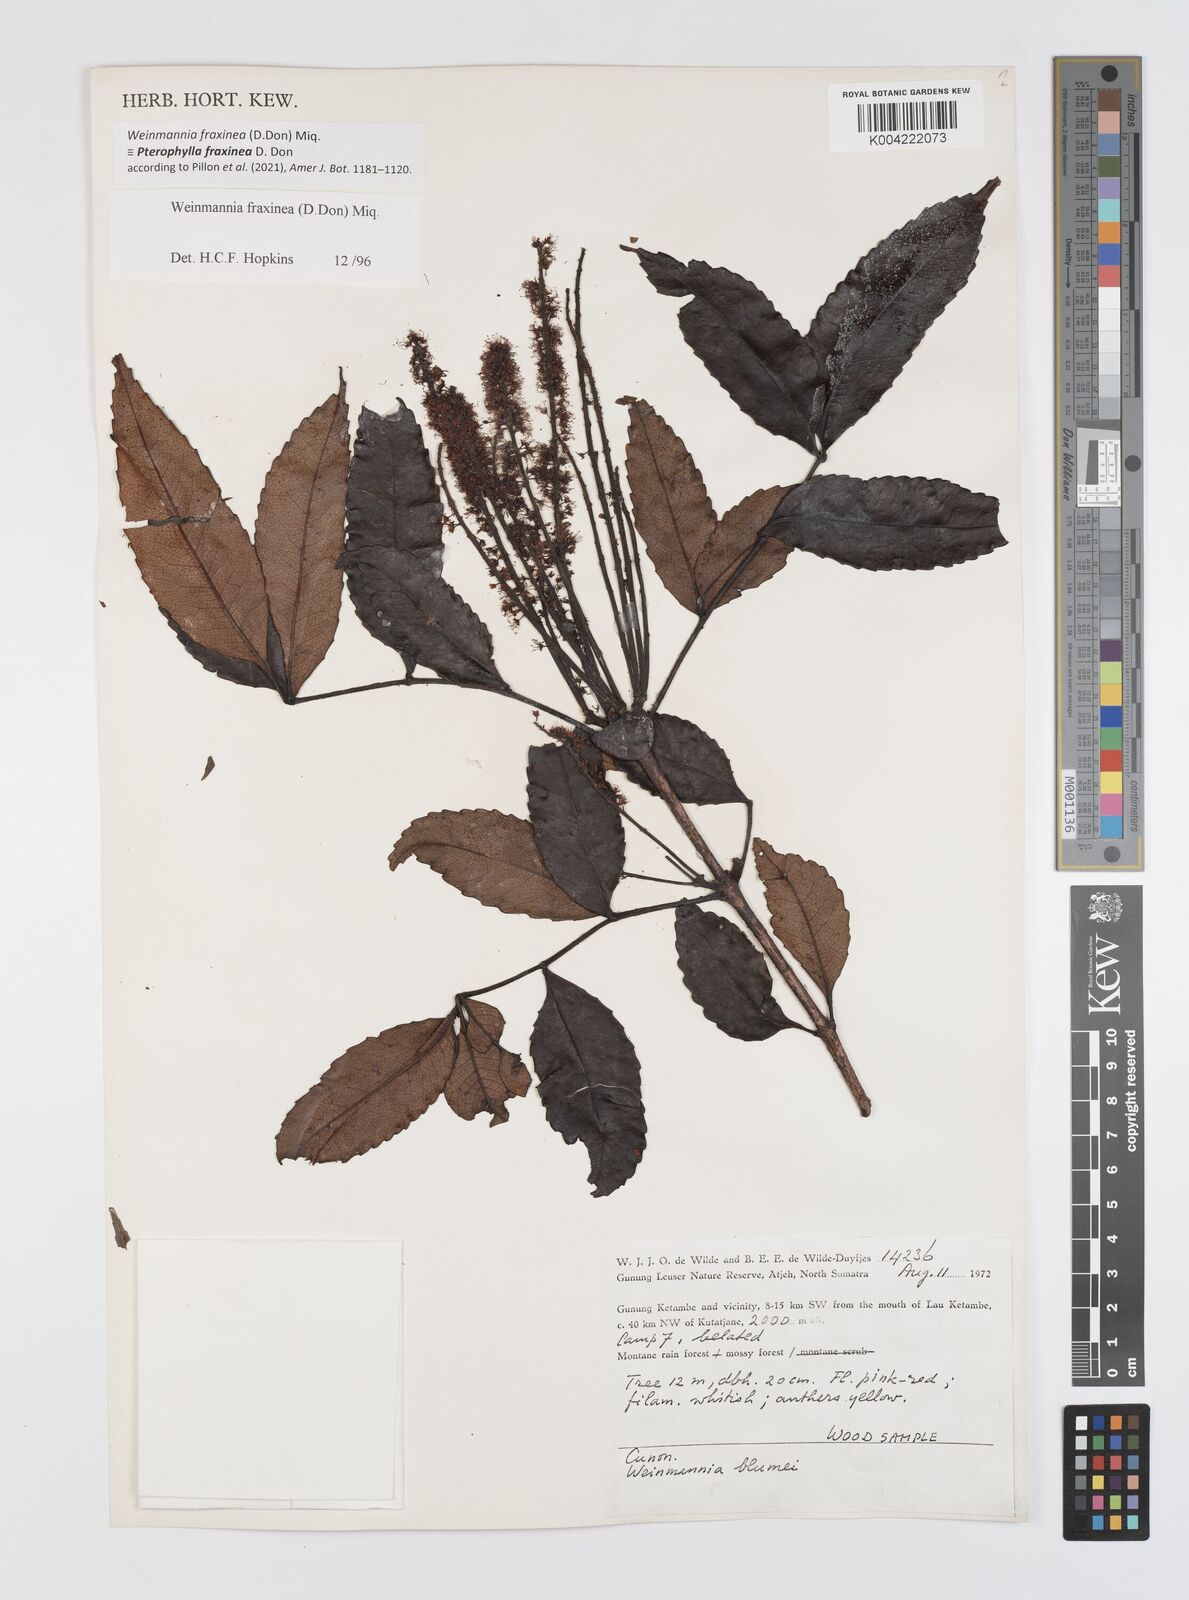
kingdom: Plantae
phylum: Tracheophyta
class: Magnoliopsida
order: Oxalidales
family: Cunoniaceae
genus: Pterophylla
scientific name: Pterophylla fraxinea
